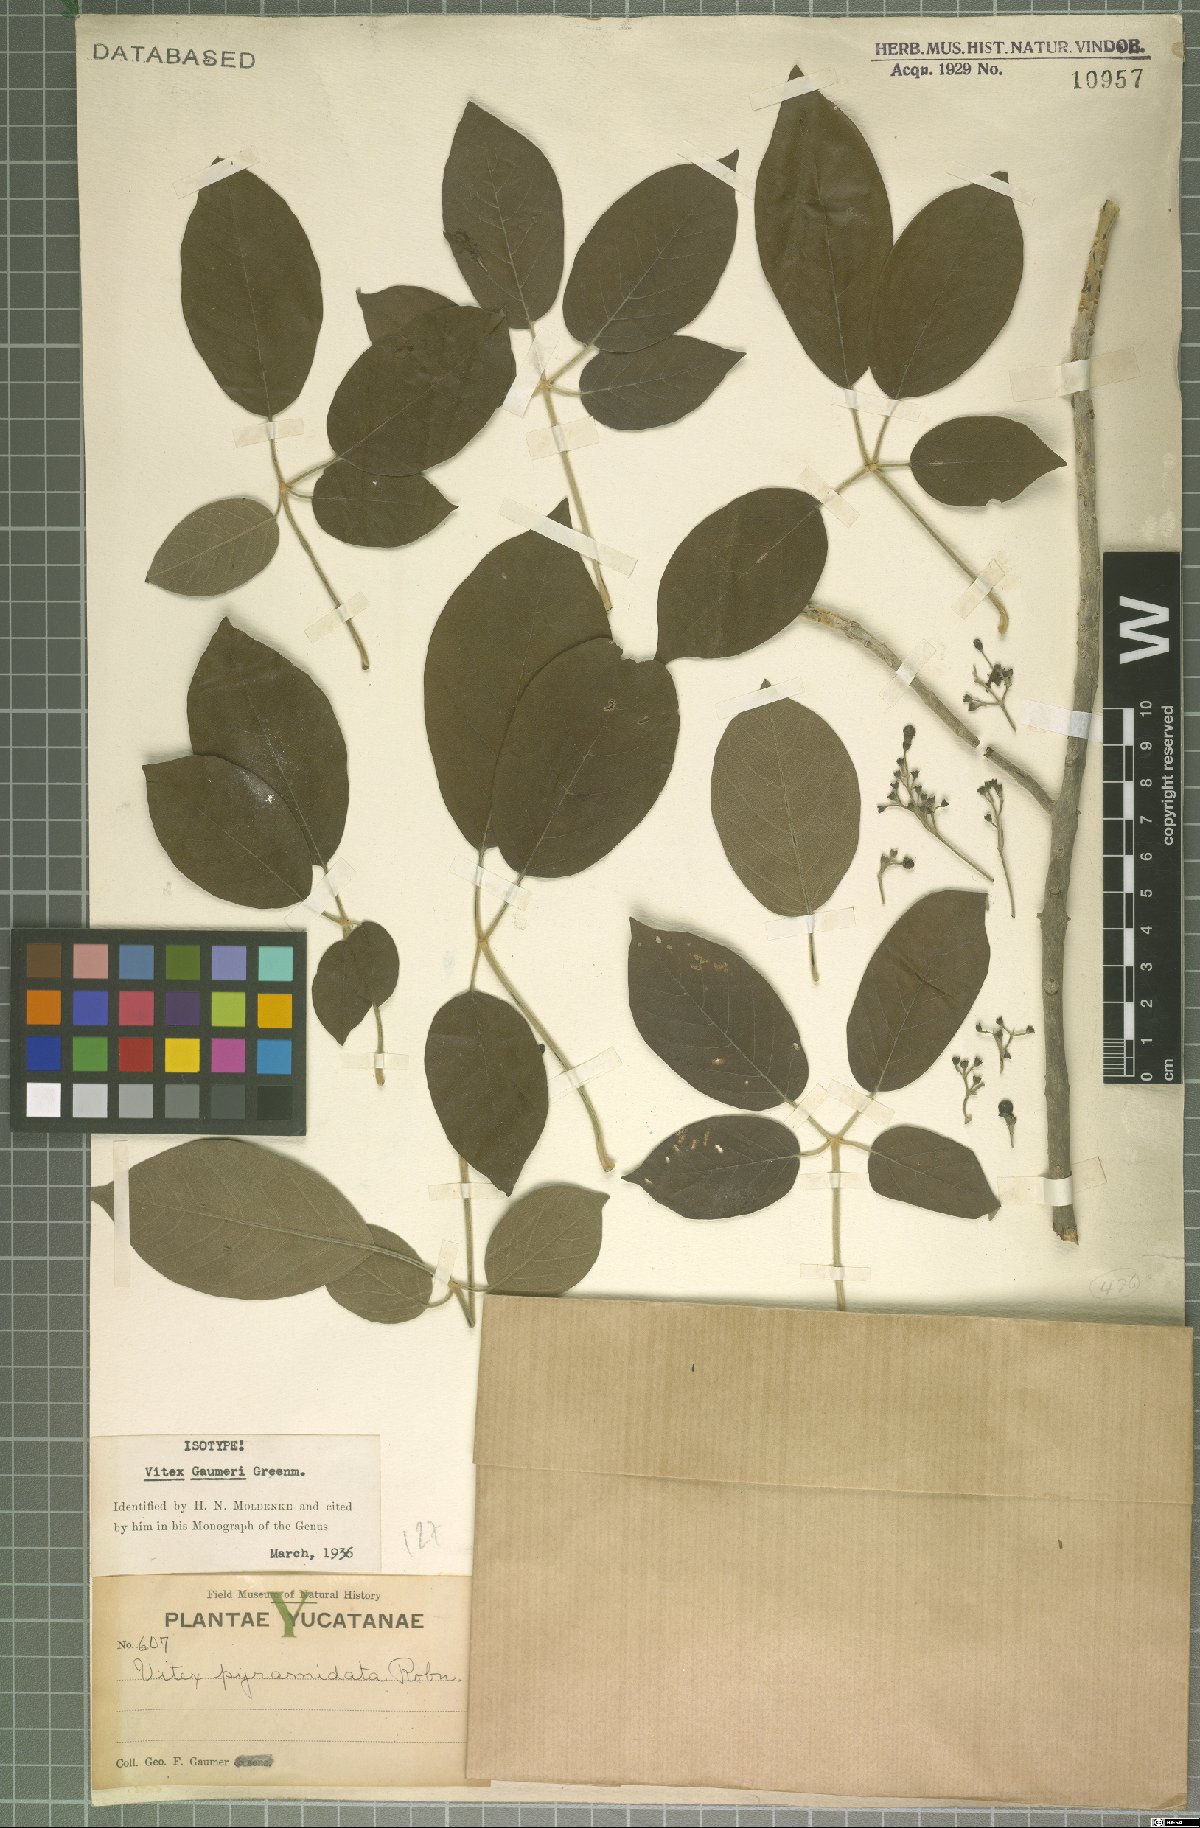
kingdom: Plantae
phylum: Tracheophyta
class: Magnoliopsida
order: Lamiales
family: Lamiaceae
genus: Vitex
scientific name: Vitex gaumeri
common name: Fiddlewood
